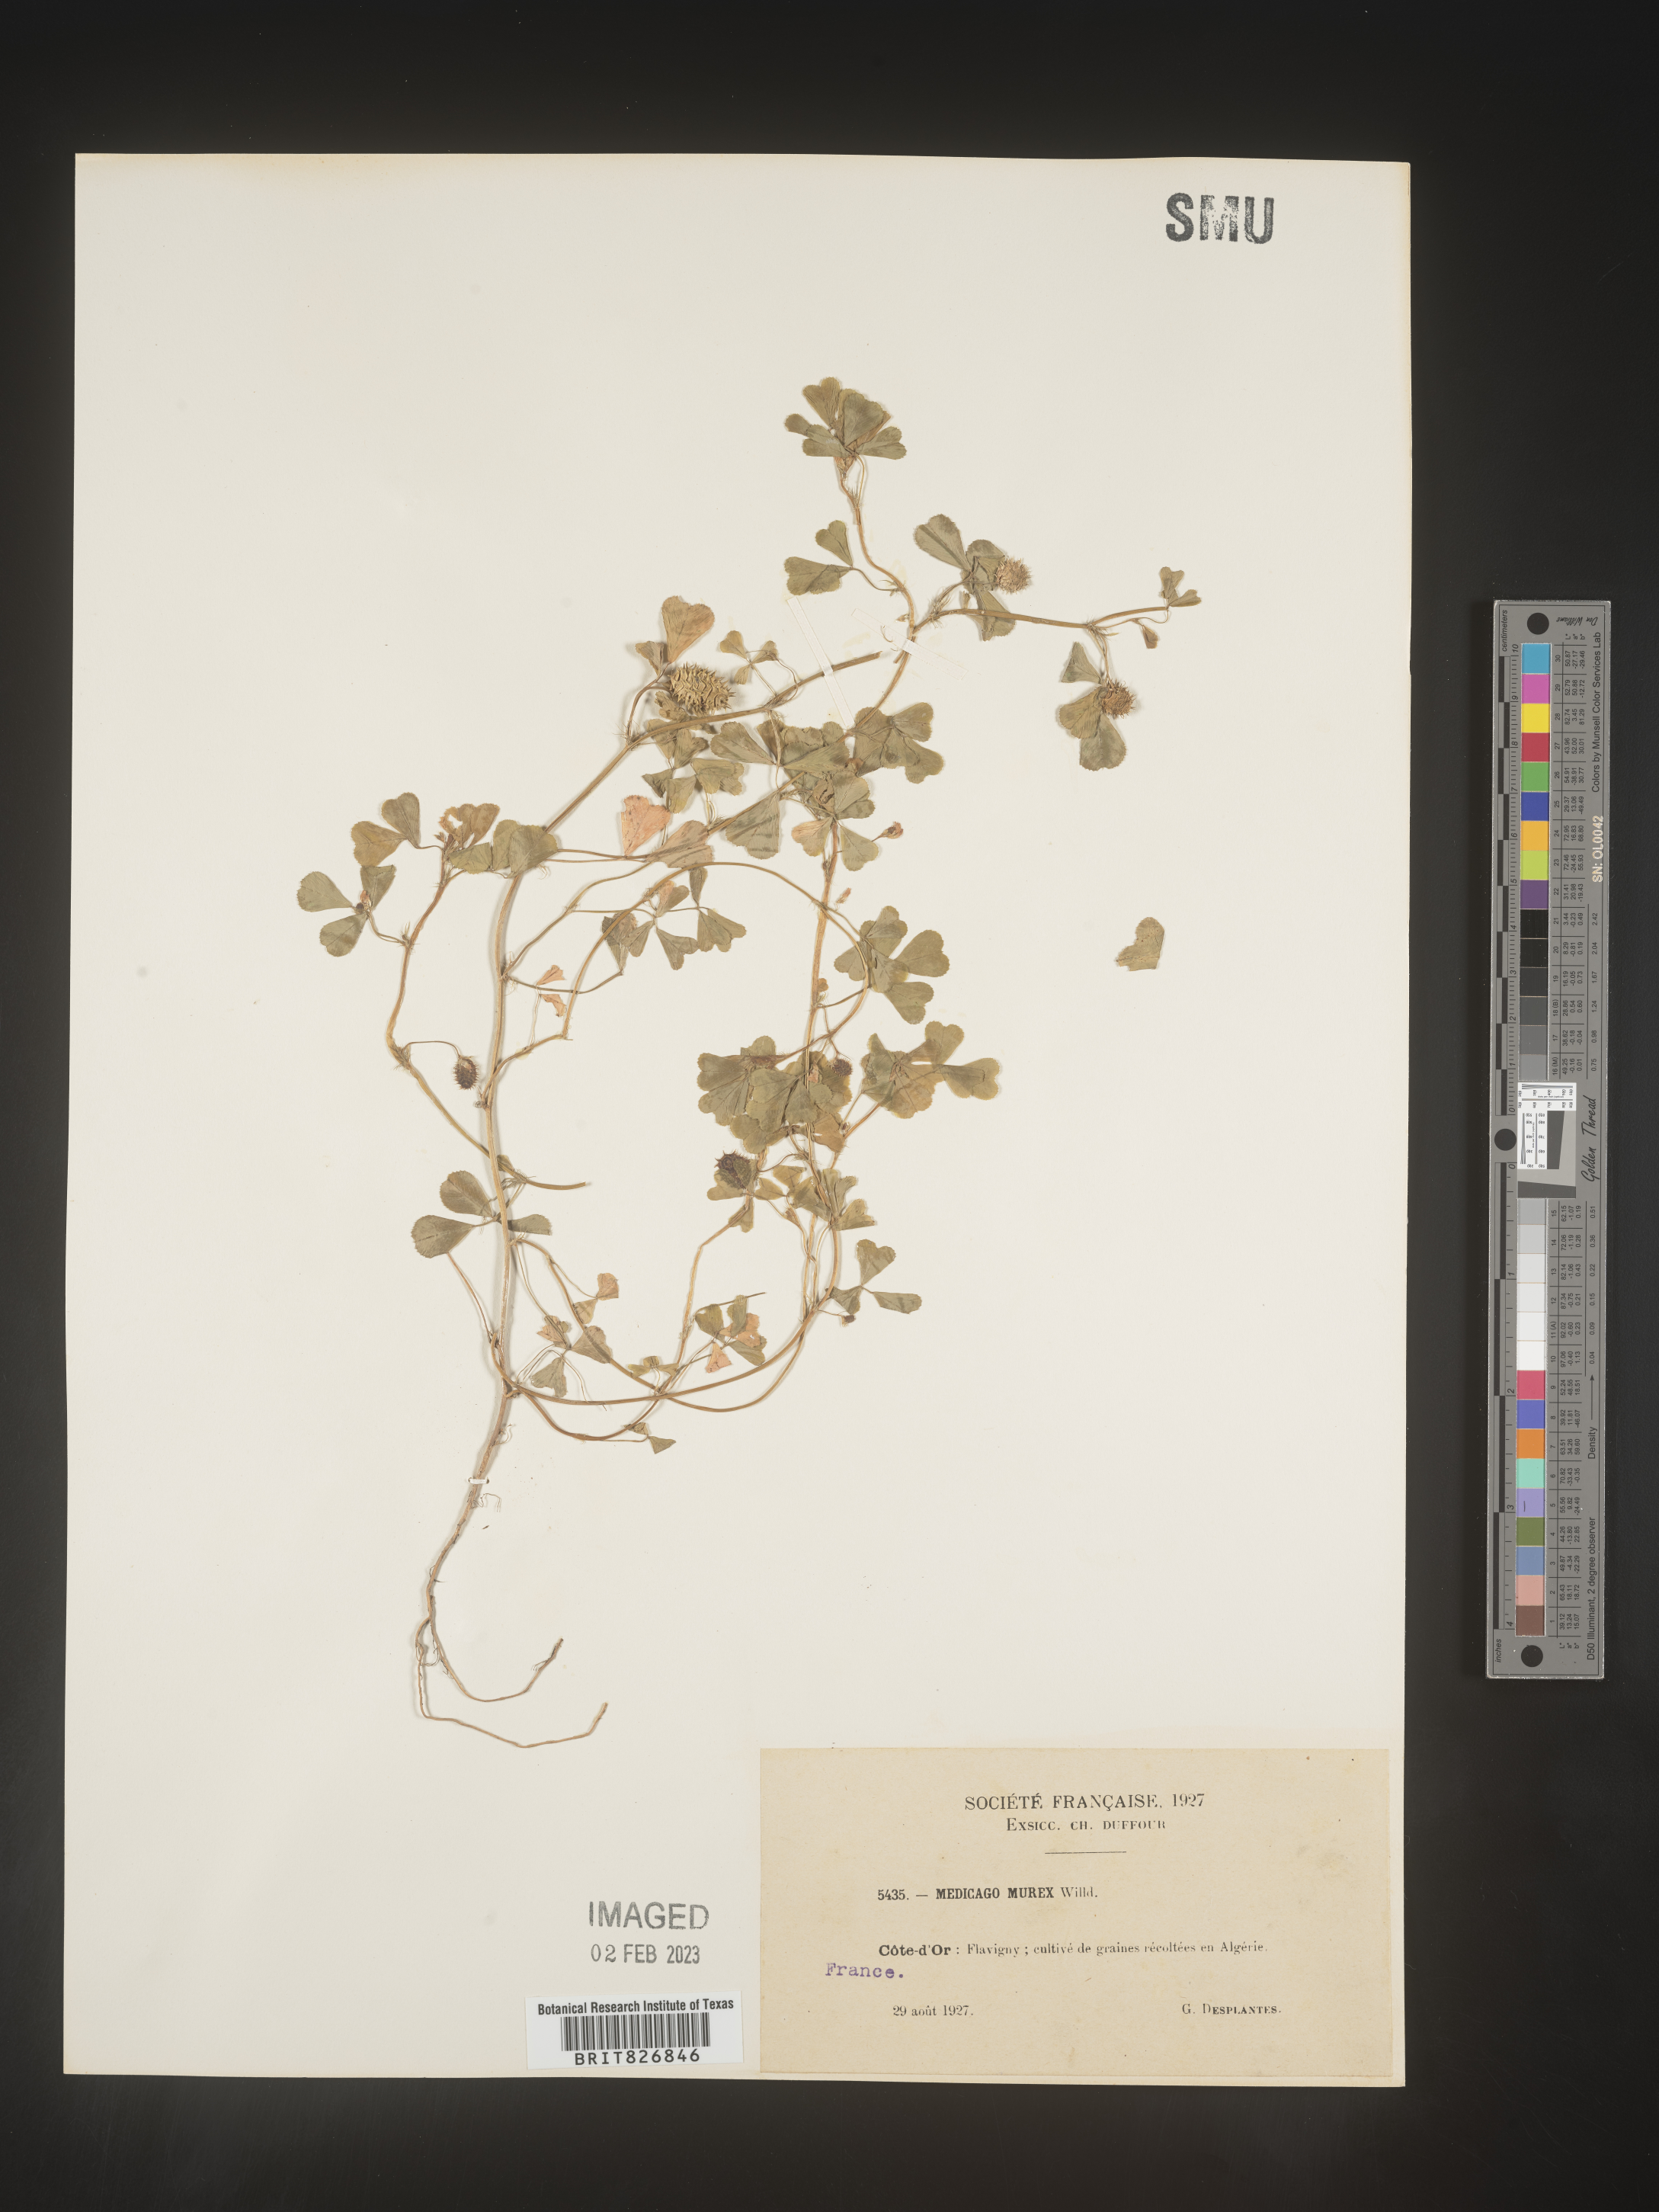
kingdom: Plantae
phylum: Tracheophyta
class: Magnoliopsida
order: Fabales
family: Fabaceae
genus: Medicago
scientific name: Medicago
